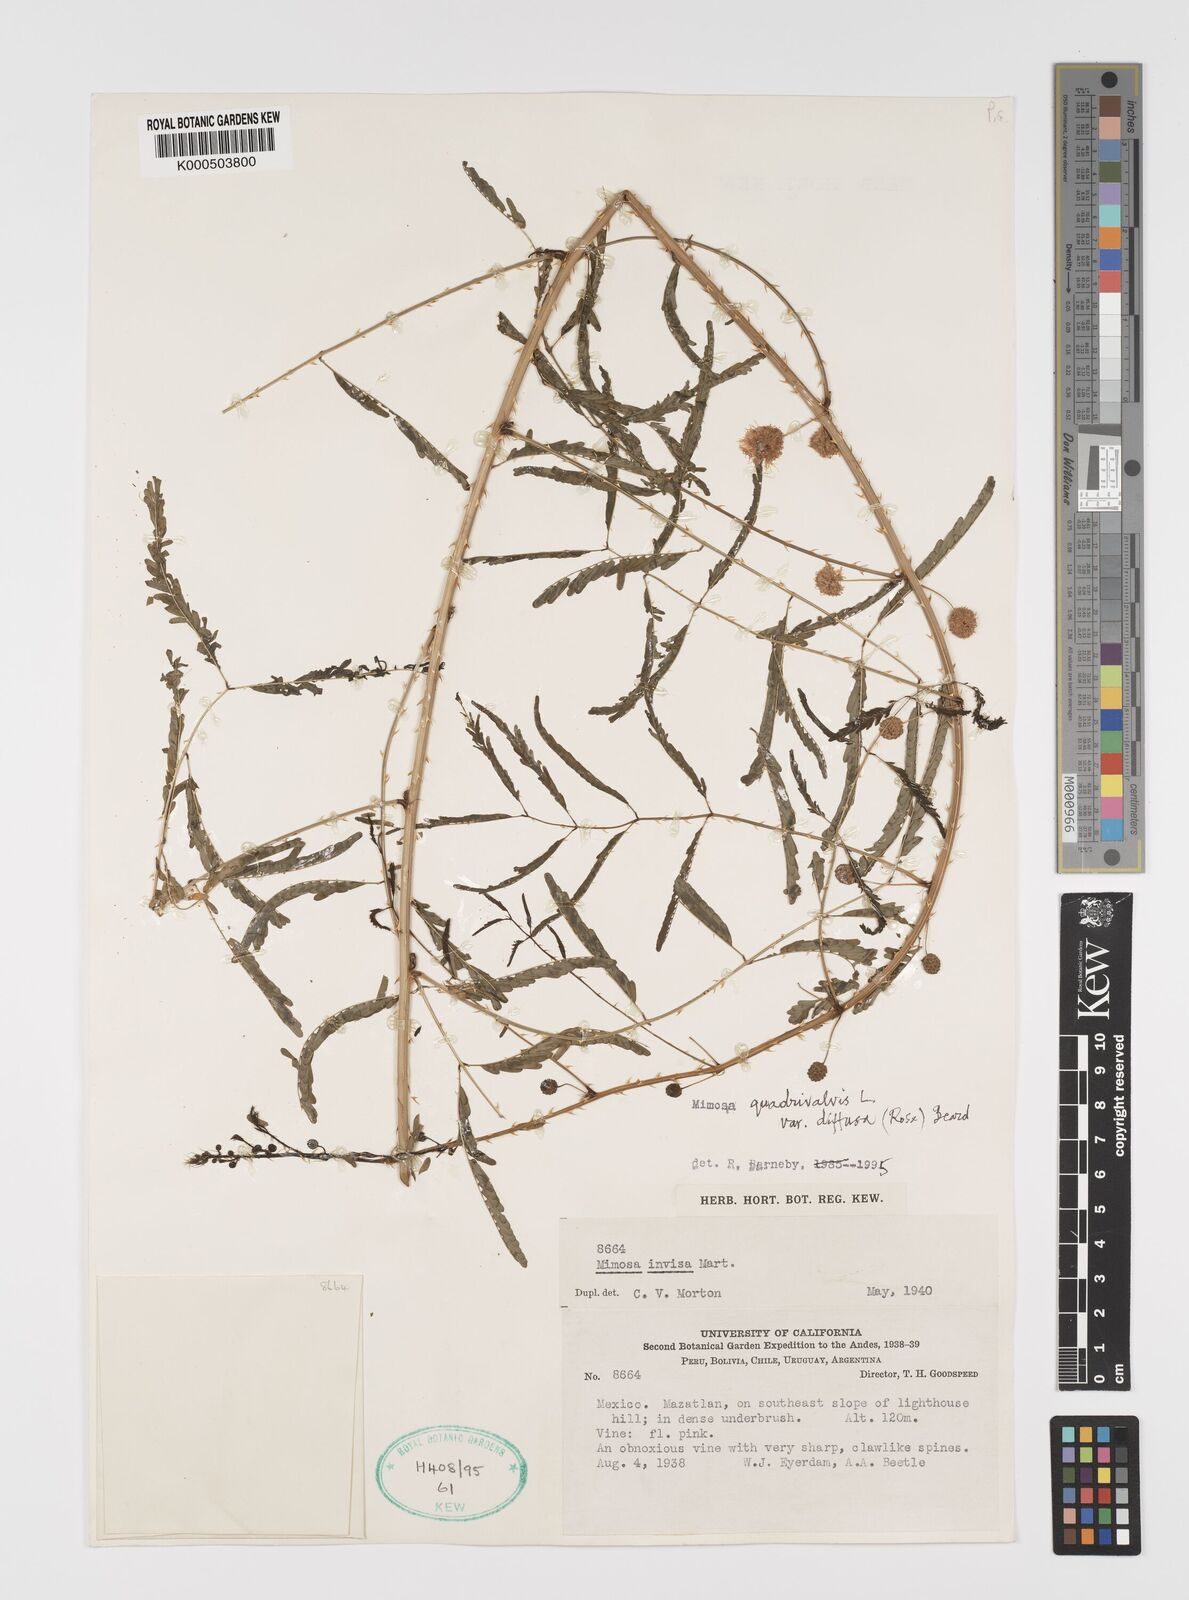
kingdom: Plantae
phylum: Tracheophyta
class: Magnoliopsida
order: Fabales
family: Fabaceae
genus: Mimosa
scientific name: Mimosa quadrivalvis
